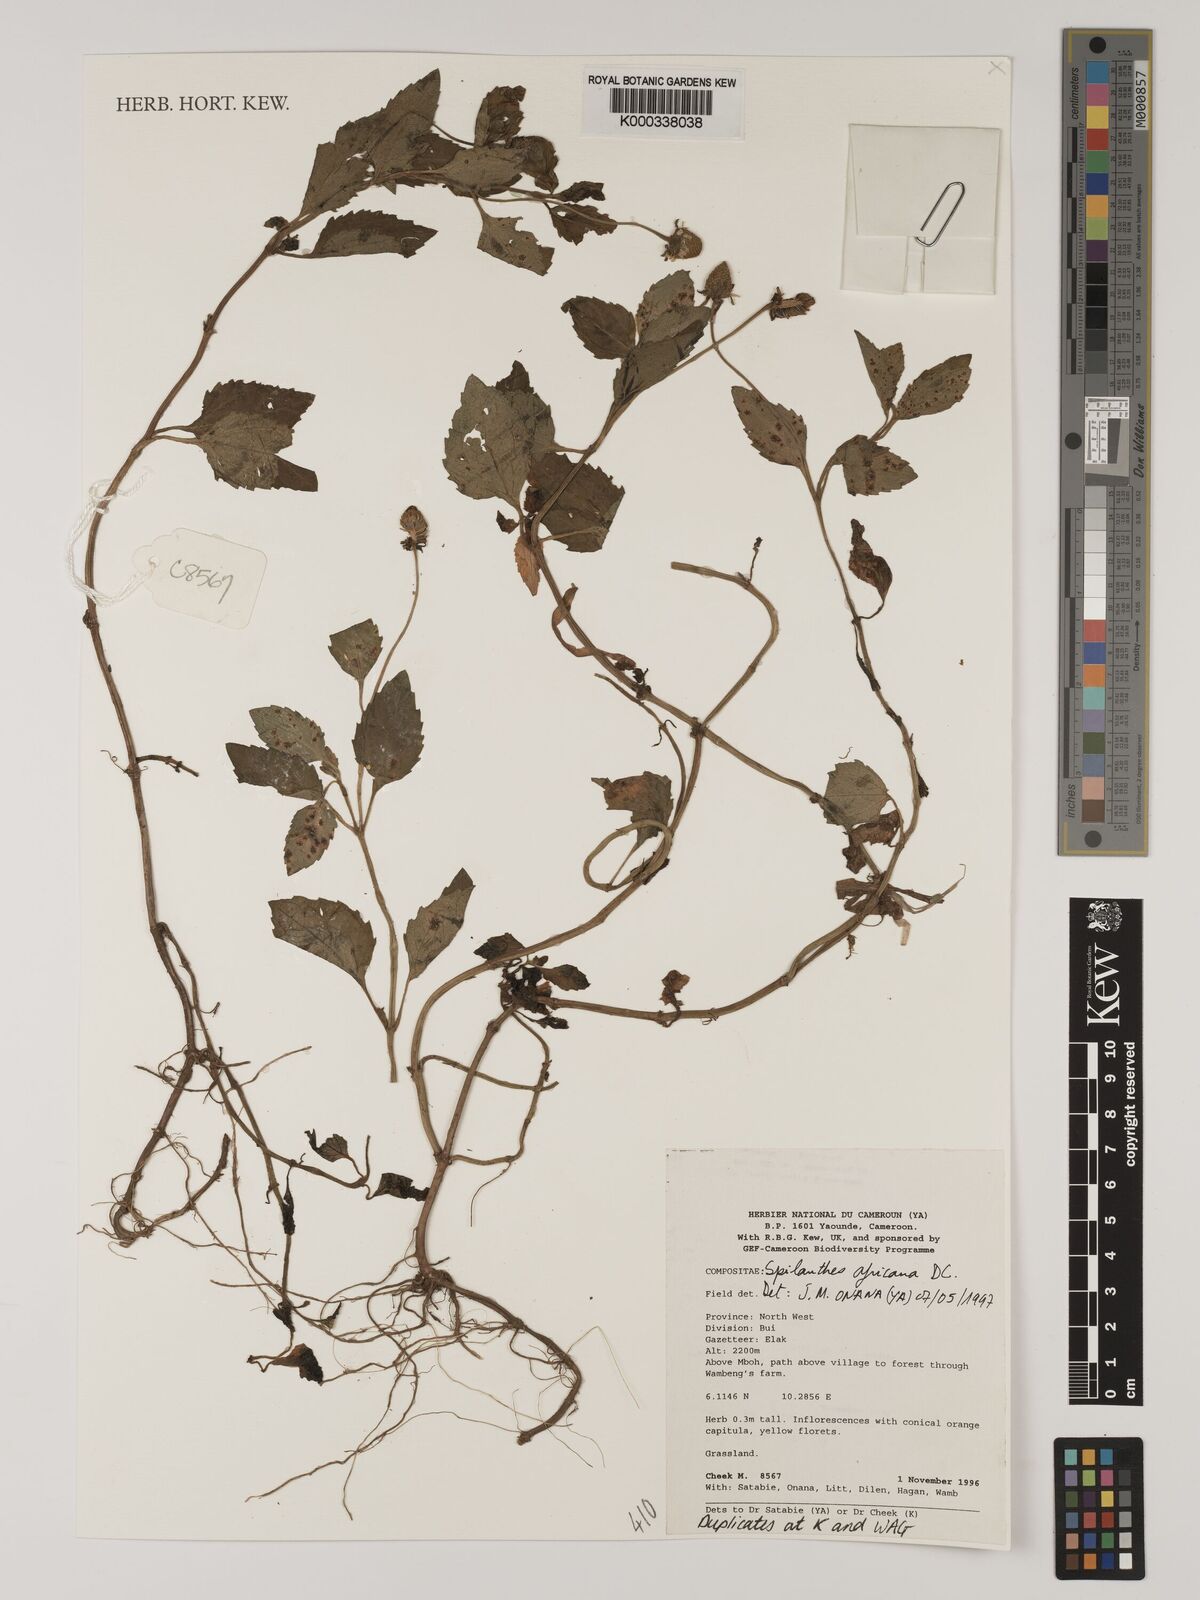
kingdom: Plantae
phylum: Tracheophyta
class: Magnoliopsida
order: Asterales
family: Asteraceae
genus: Acmella
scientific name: Acmella caulirhiza
